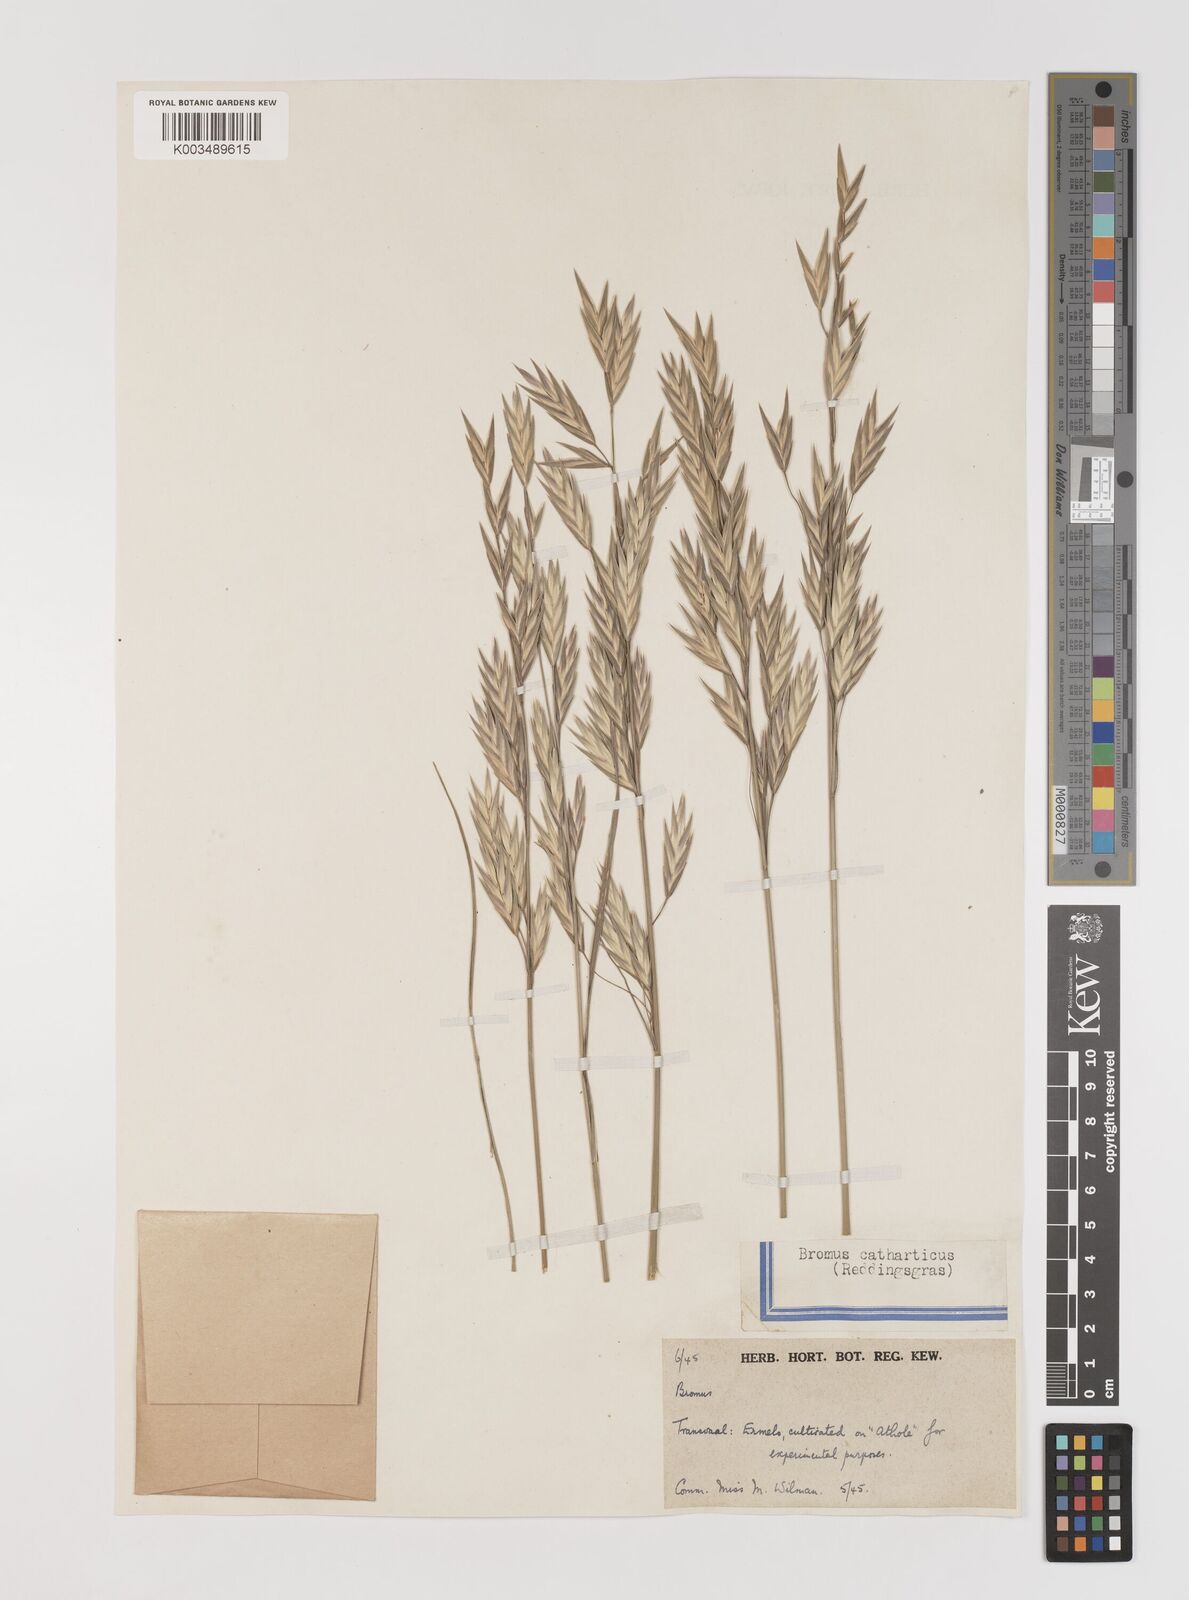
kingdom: Plantae
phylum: Tracheophyta
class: Liliopsida
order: Poales
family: Poaceae
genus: Bromus
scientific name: Bromus catharticus
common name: Rescuegrass
